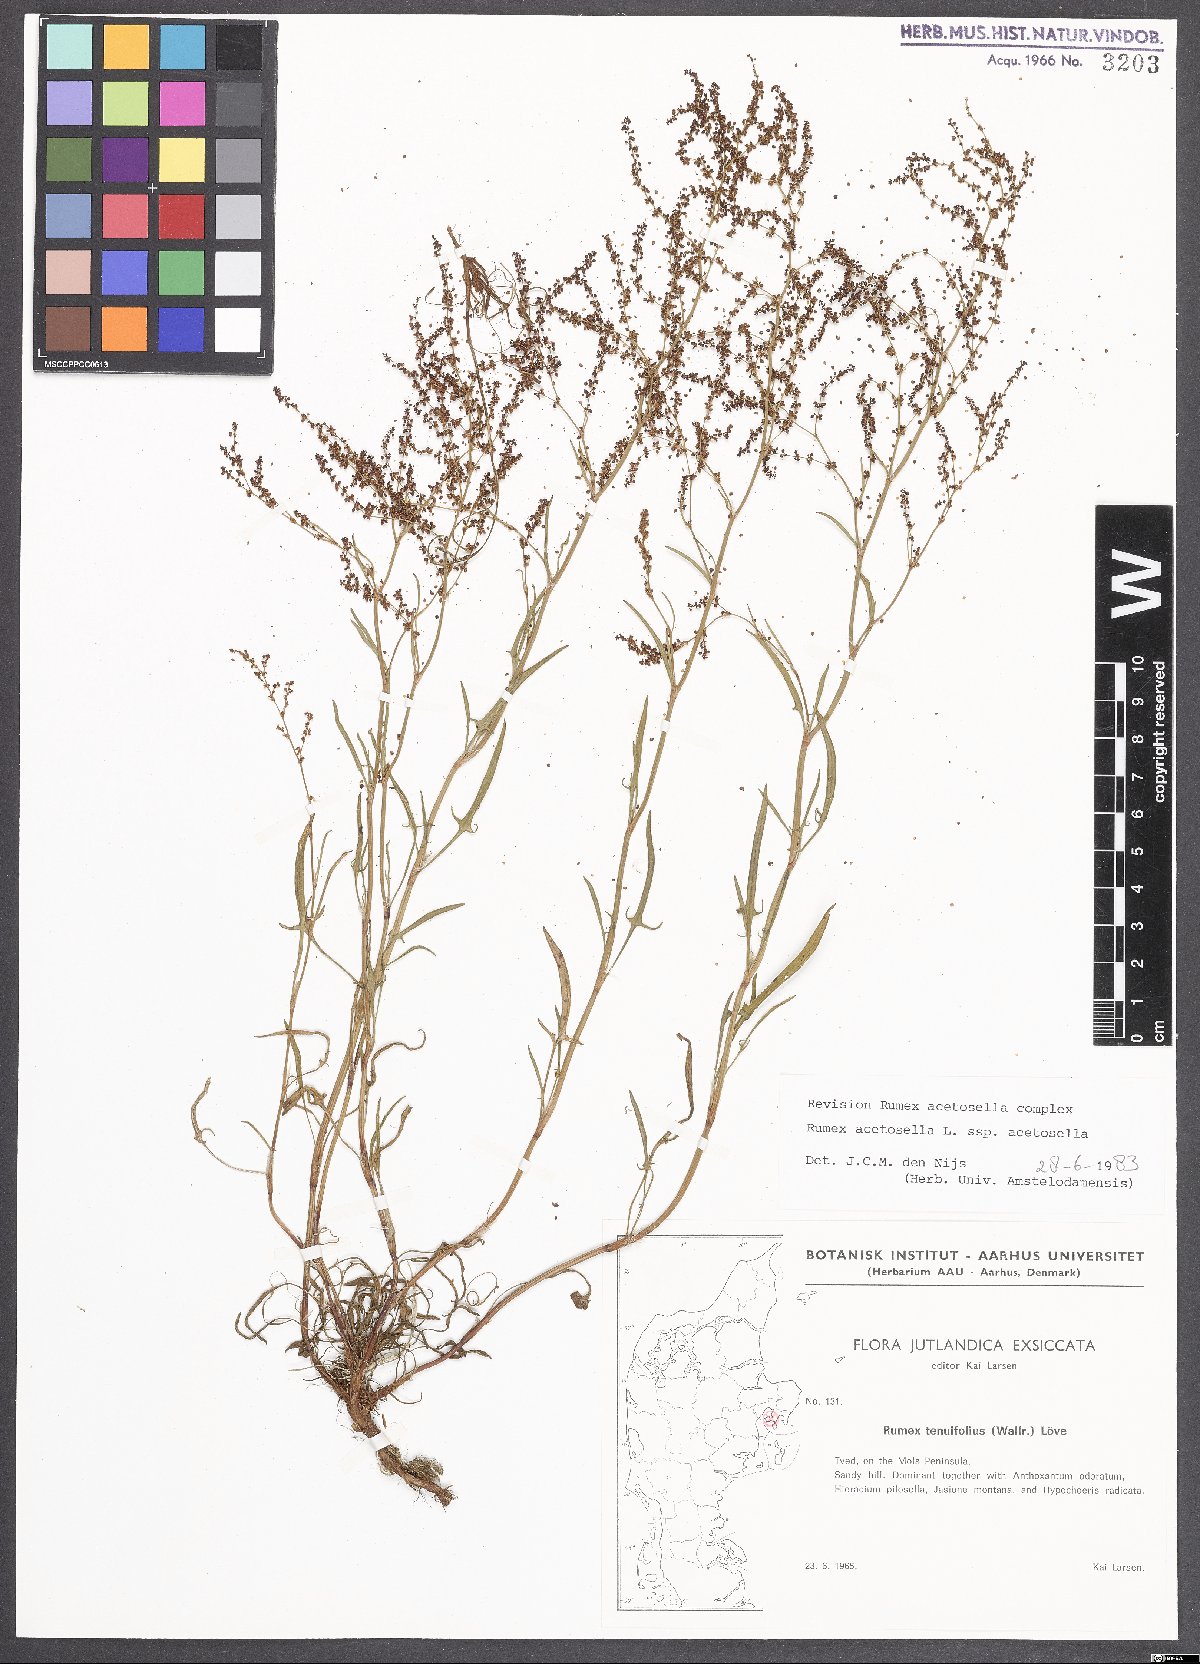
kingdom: Plantae
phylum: Tracheophyta
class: Magnoliopsida
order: Caryophyllales
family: Polygonaceae
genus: Rumex
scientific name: Rumex acetosella
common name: Common sheep sorrel
